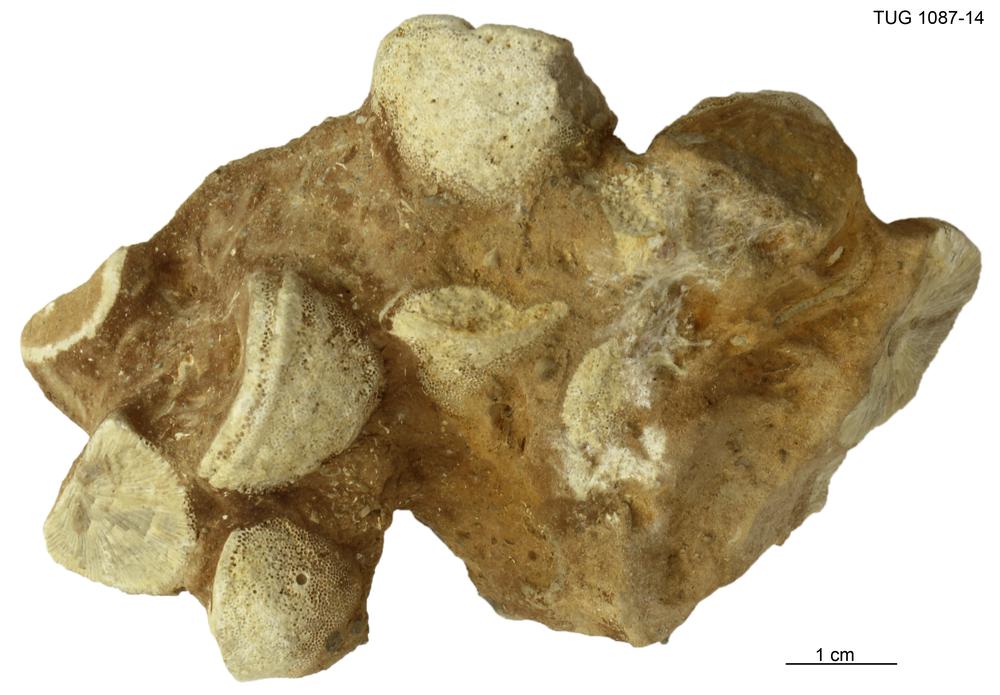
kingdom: Animalia
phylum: Bryozoa
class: Stenolaemata
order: Trepostomatida
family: Diplotrypidae
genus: Diplotrypa
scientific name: Diplotrypa petropolitana
